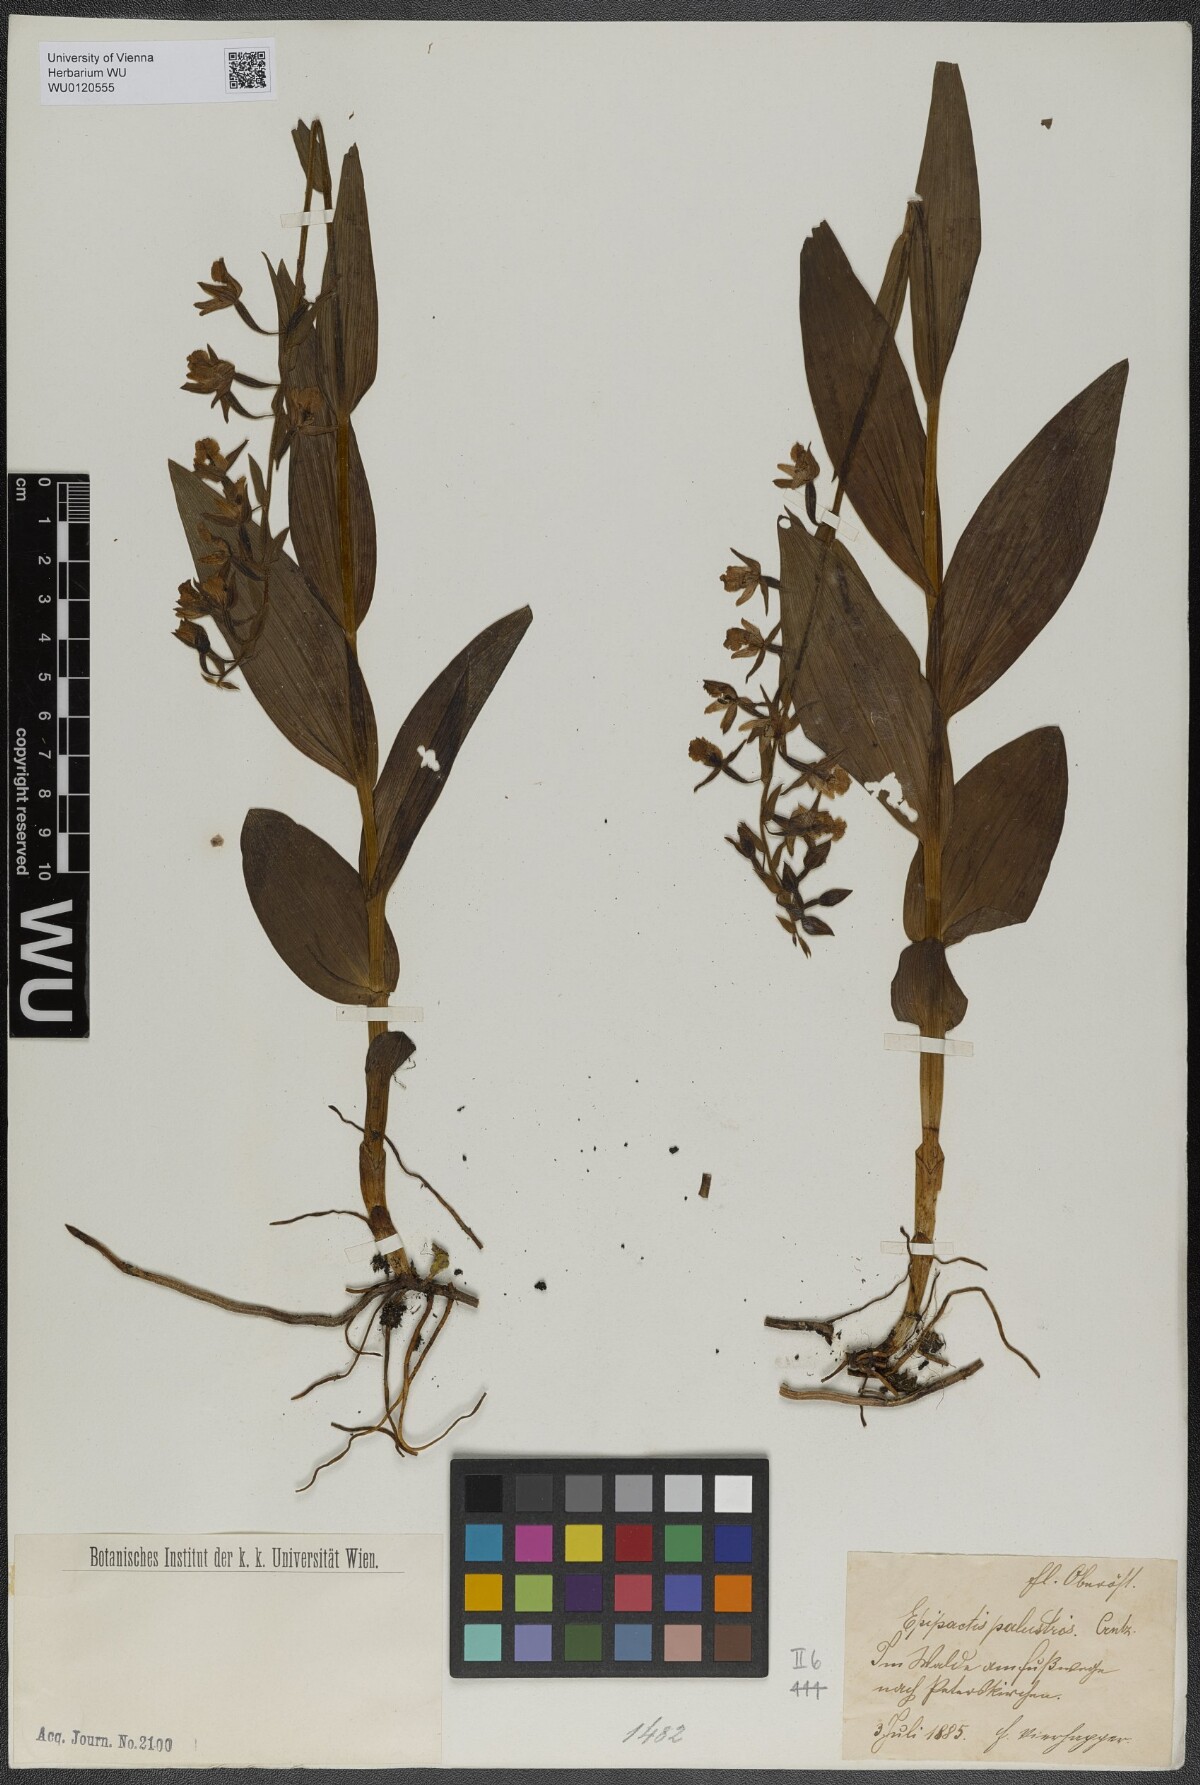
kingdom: Plantae
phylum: Tracheophyta
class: Liliopsida
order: Asparagales
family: Orchidaceae
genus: Epipactis
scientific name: Epipactis palustris
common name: Marsh helleborine
